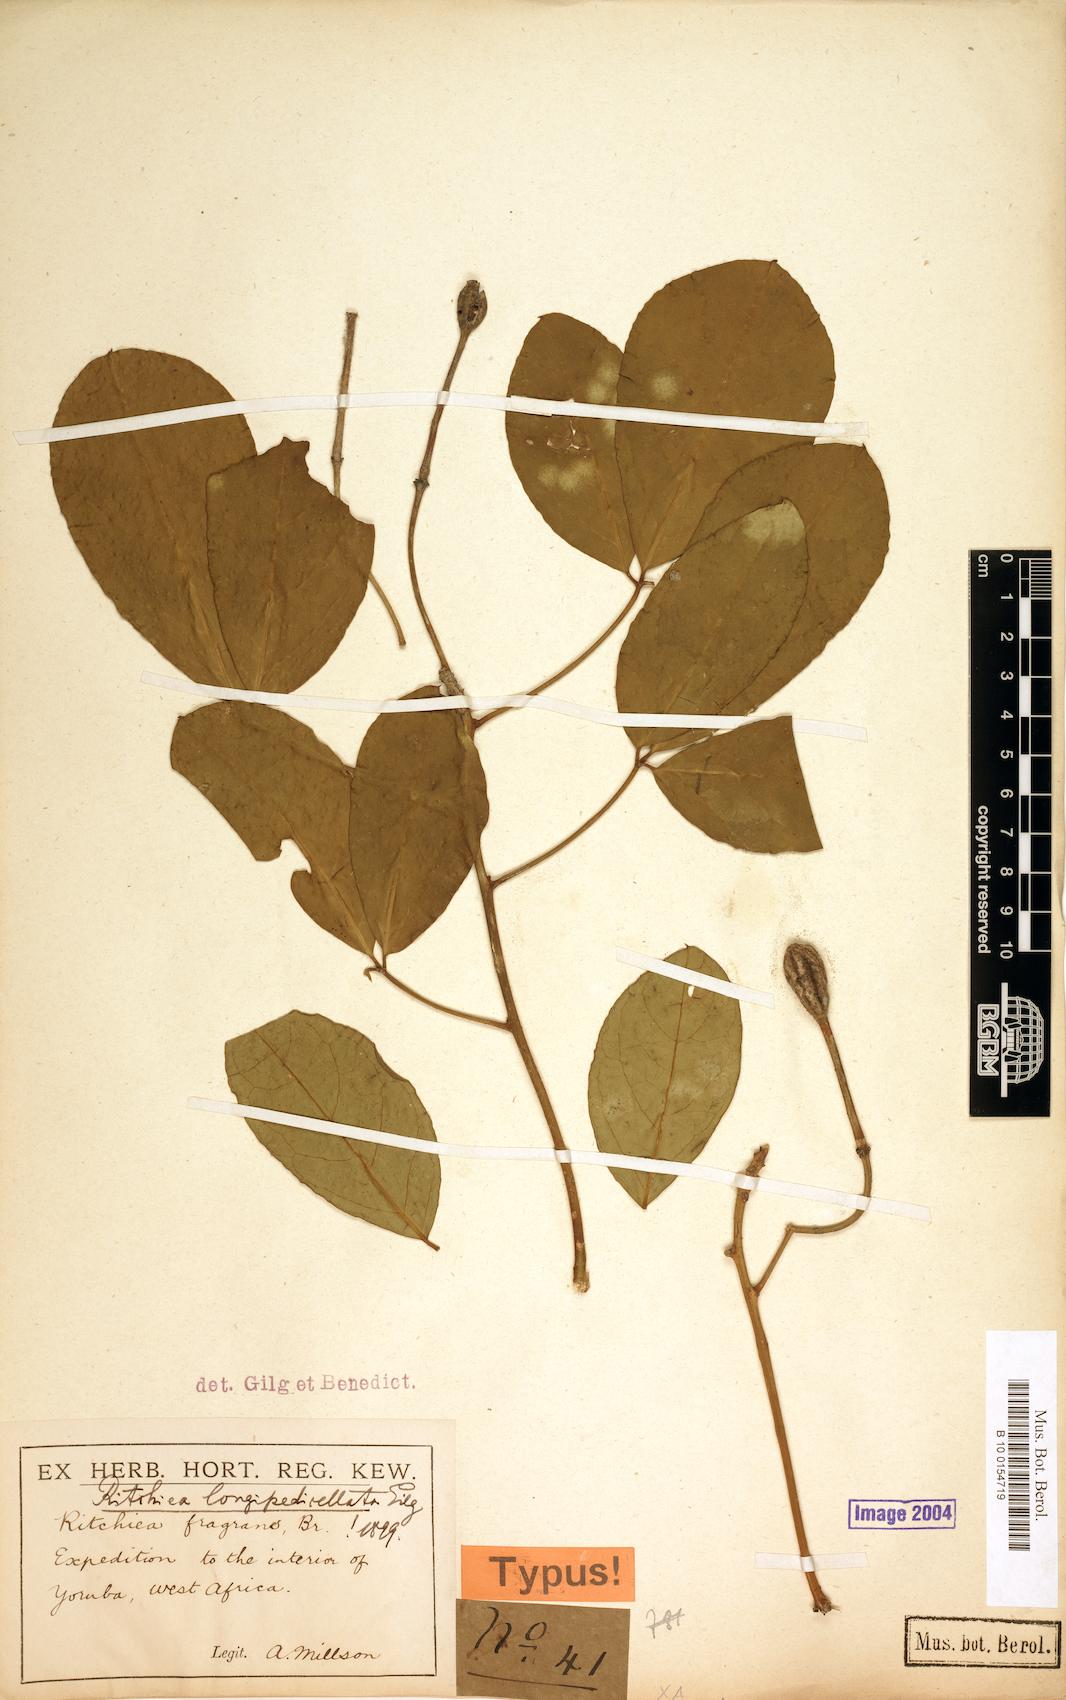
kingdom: Plantae
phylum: Tracheophyta
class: Magnoliopsida
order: Brassicales
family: Capparaceae
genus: Ritchiea
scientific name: Ritchiea capparoides
